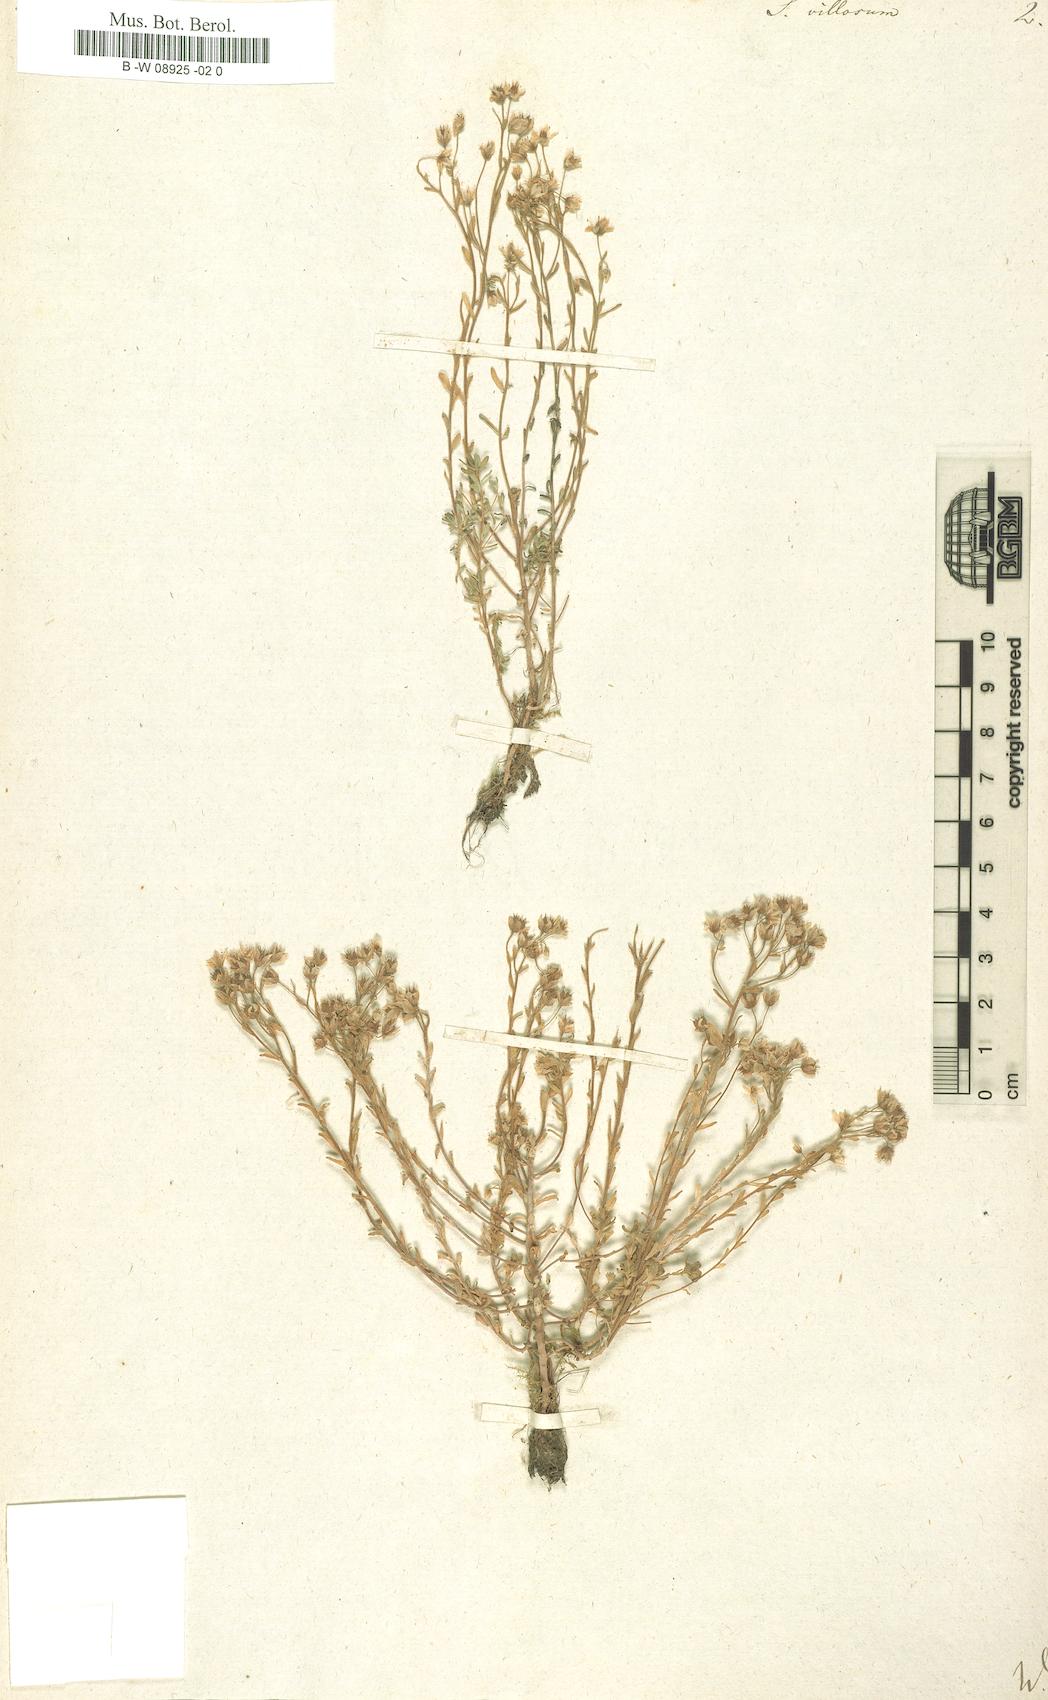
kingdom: Plantae
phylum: Tracheophyta
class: Magnoliopsida
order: Saxifragales
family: Crassulaceae
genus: Sedum
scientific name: Sedum villosum
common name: Hairy stonecrop
